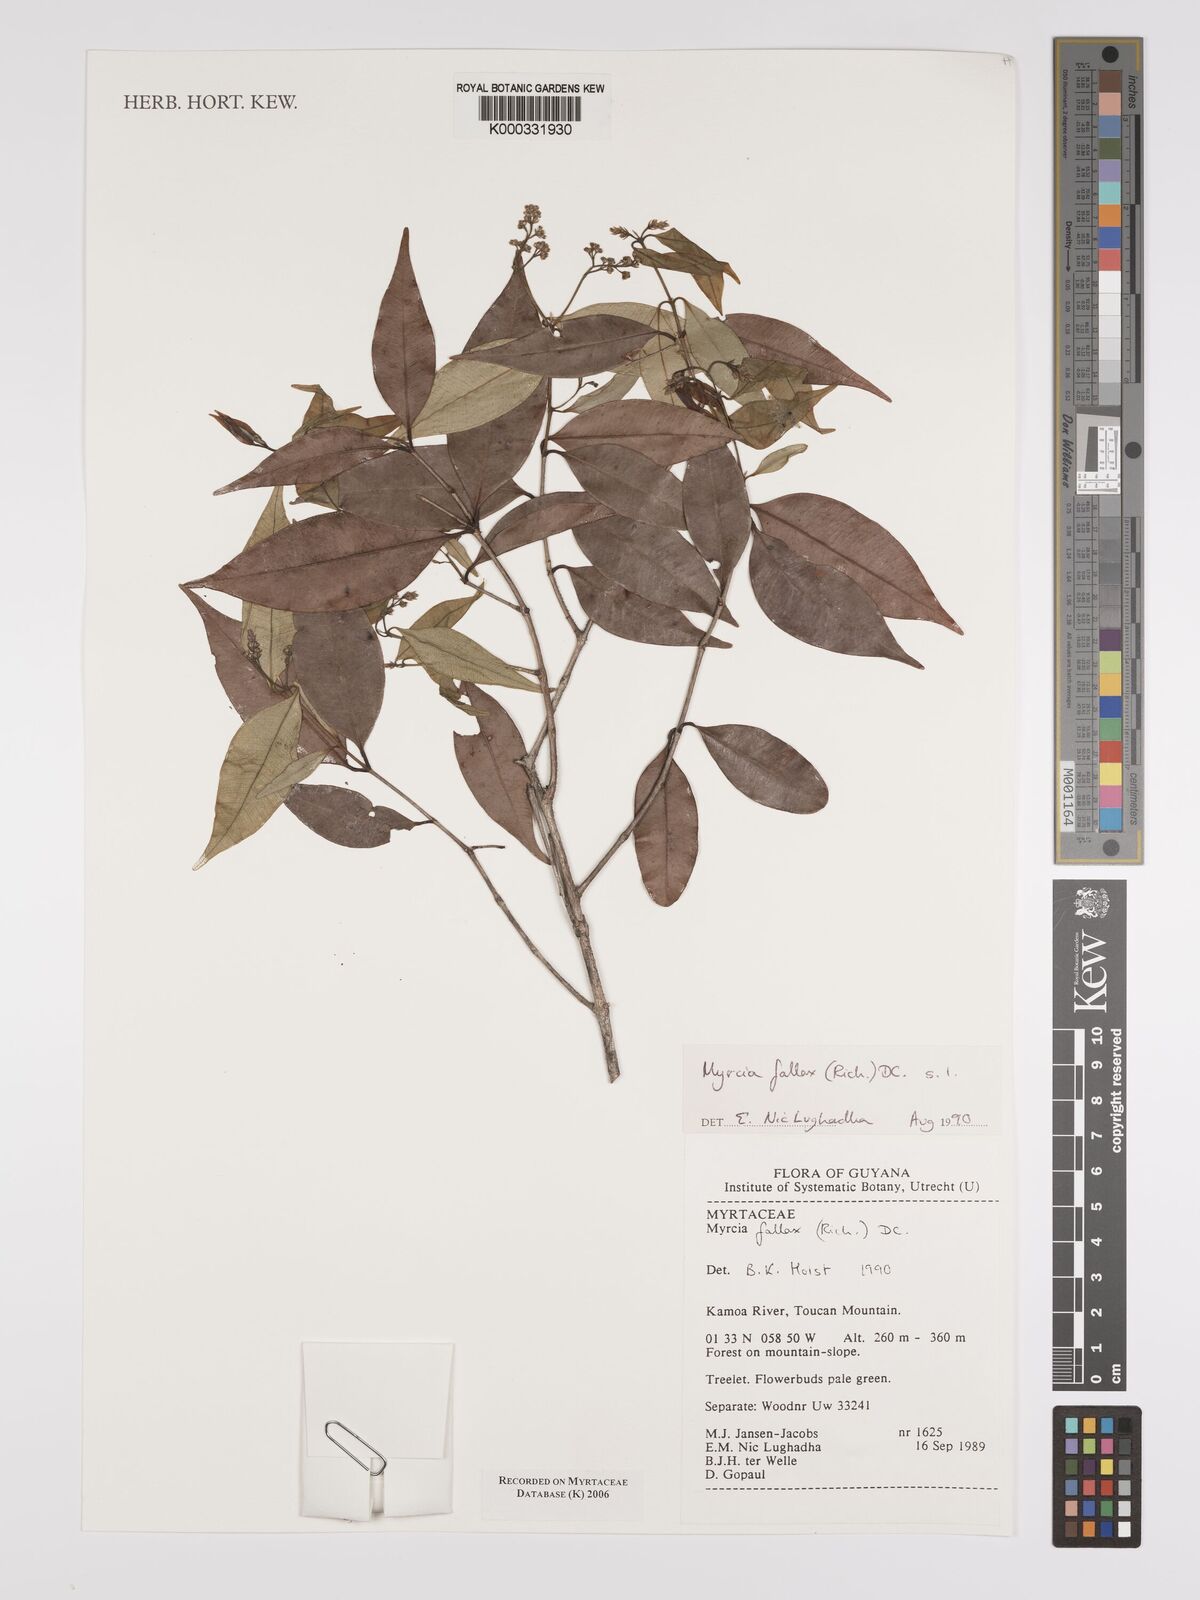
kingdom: Plantae
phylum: Tracheophyta
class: Magnoliopsida
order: Myrtales
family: Myrtaceae
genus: Myrcia
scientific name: Myrcia splendens
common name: Surinam cherry
